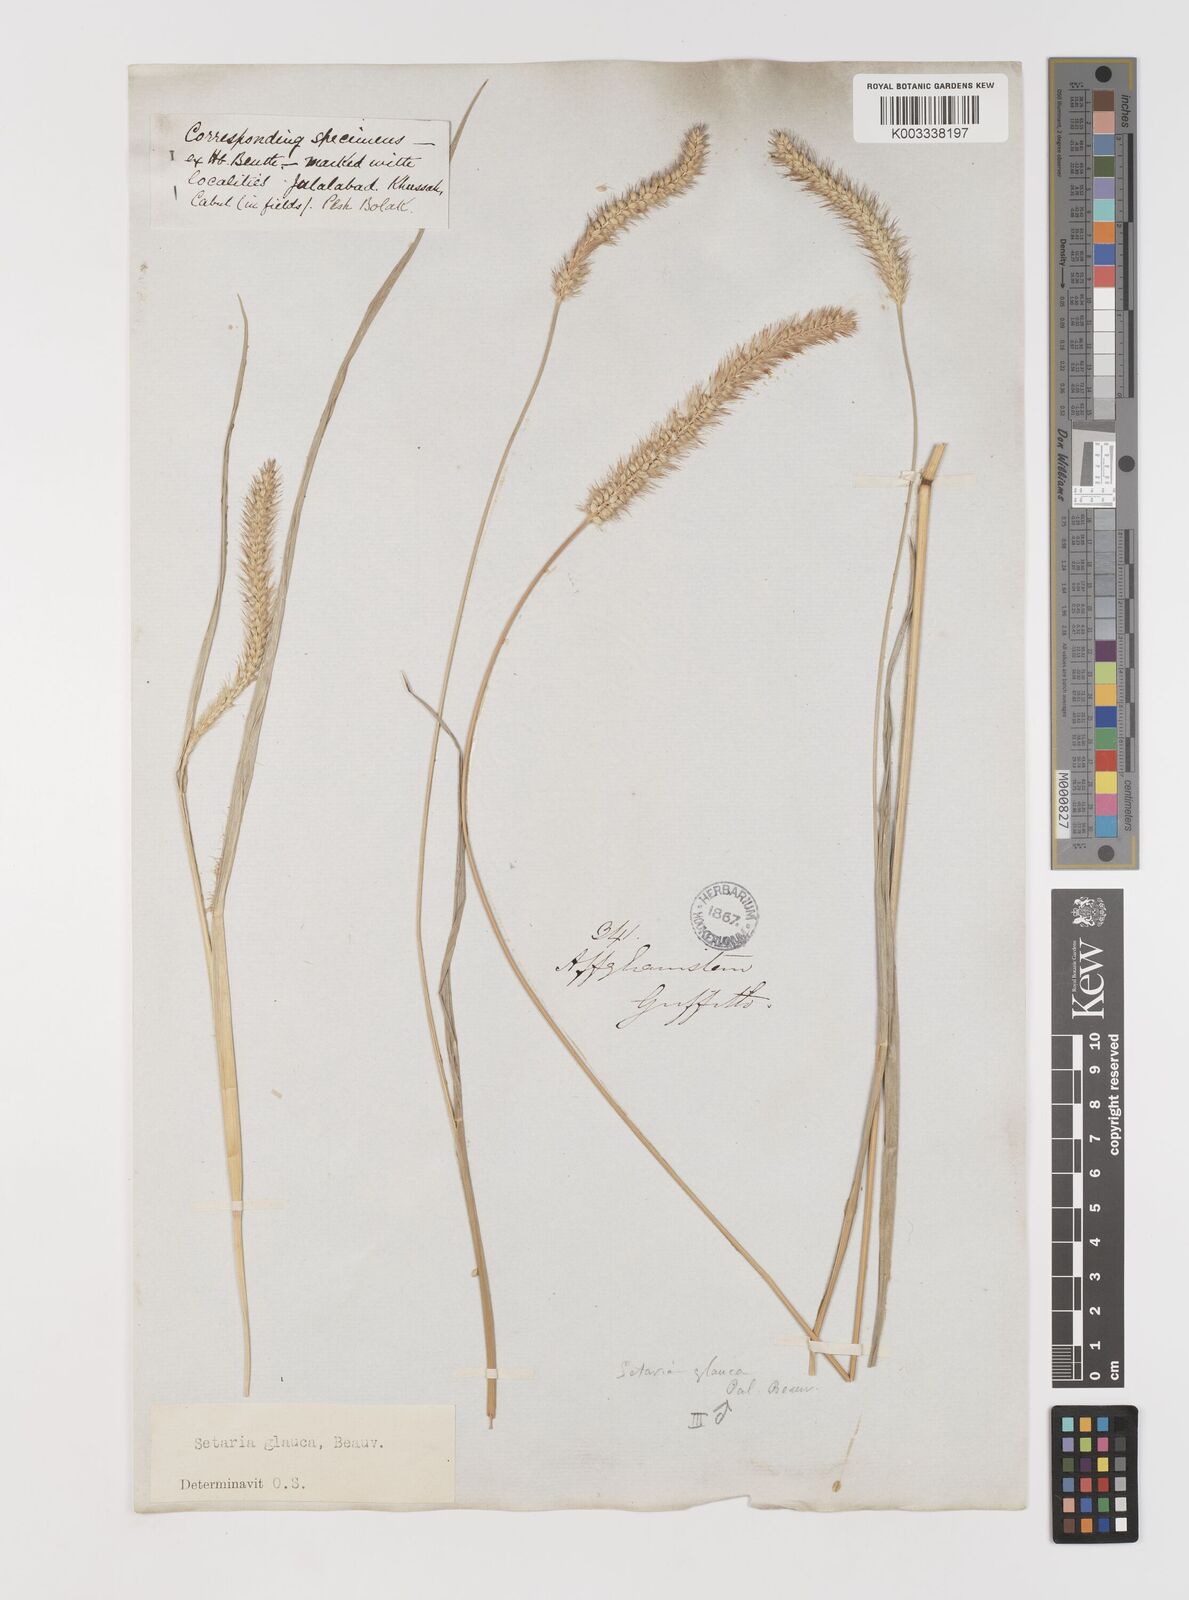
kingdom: Plantae
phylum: Tracheophyta
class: Liliopsida
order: Poales
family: Poaceae
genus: Setaria
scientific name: Setaria pumila
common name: Yellow bristle-grass
